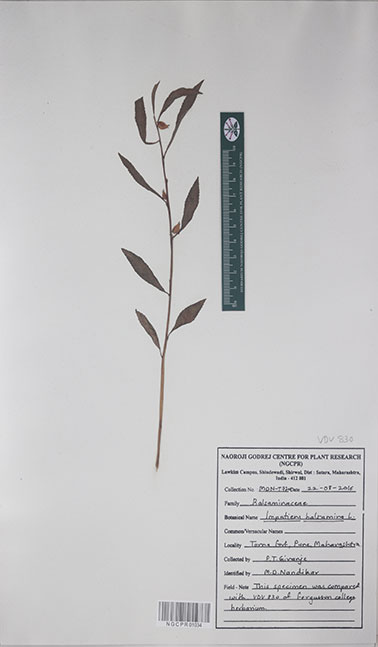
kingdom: Plantae
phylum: Tracheophyta
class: Magnoliopsida
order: Ericales
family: Balsaminaceae
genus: Impatiens
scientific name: Impatiens balsamina
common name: Balsam
